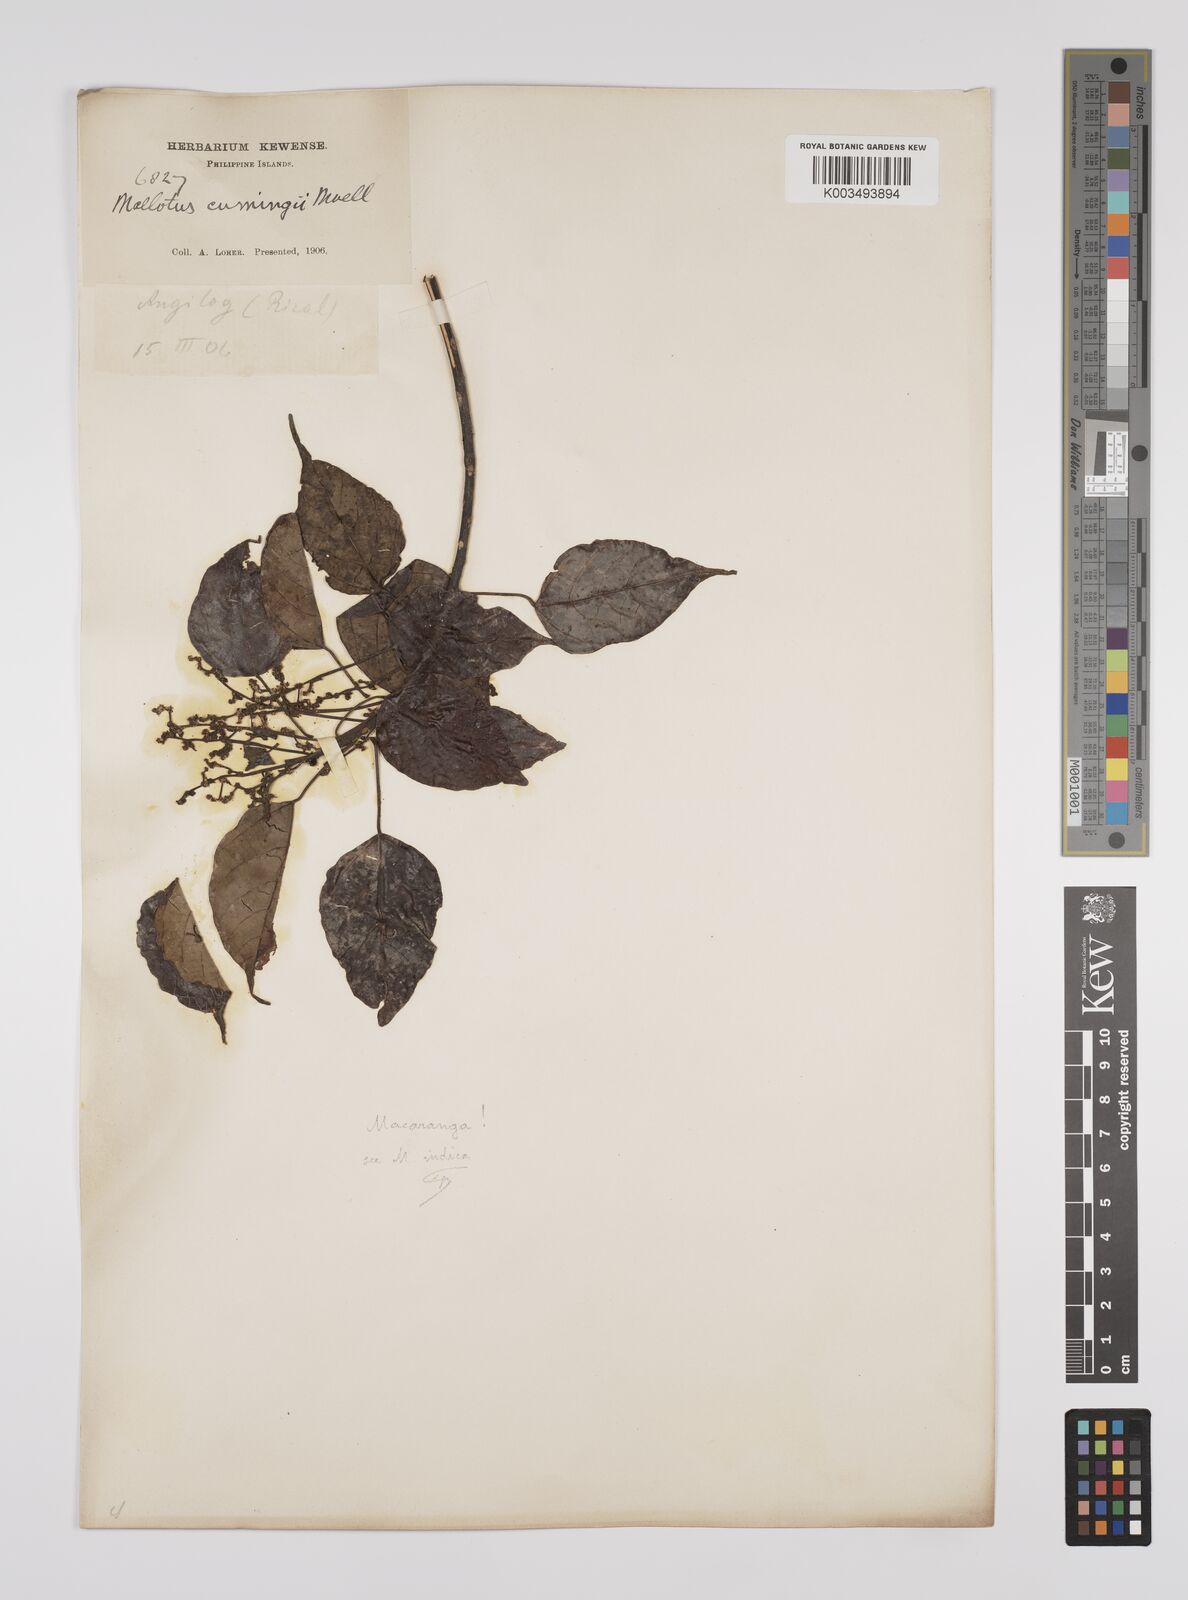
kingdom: Plantae
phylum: Tracheophyta
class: Magnoliopsida
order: Malpighiales
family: Euphorbiaceae
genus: Macaranga
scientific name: Macaranga cumingii
